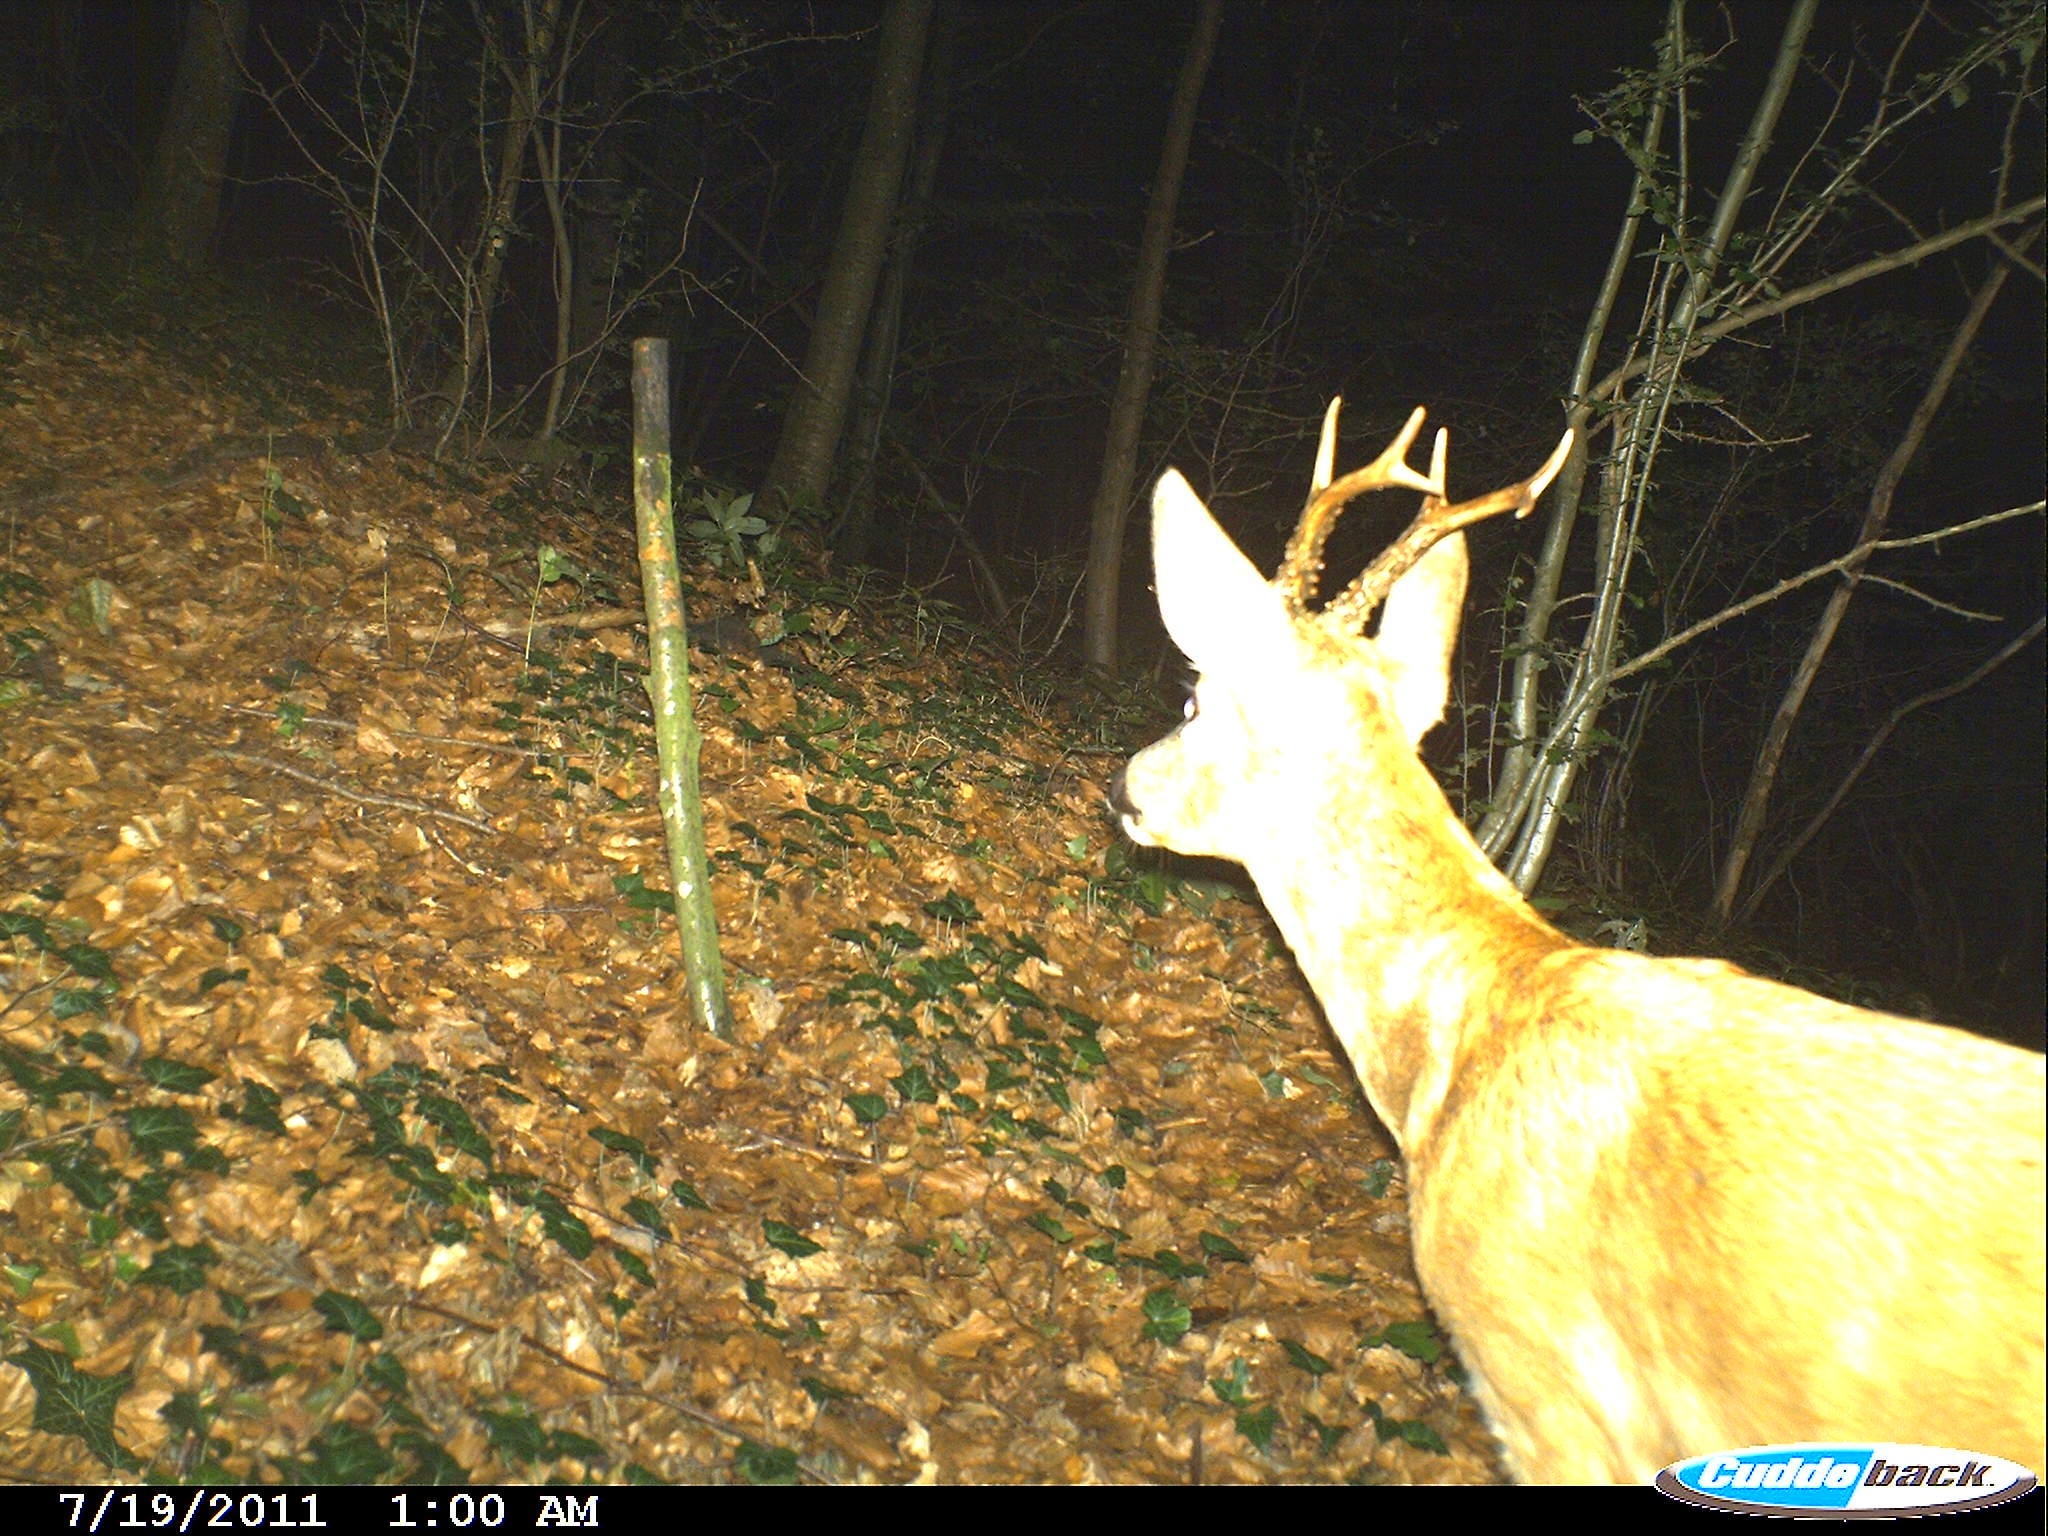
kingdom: Animalia
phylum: Chordata
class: Mammalia
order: Artiodactyla
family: Cervidae
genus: Capreolus
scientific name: Capreolus capreolus
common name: Western roe deer
